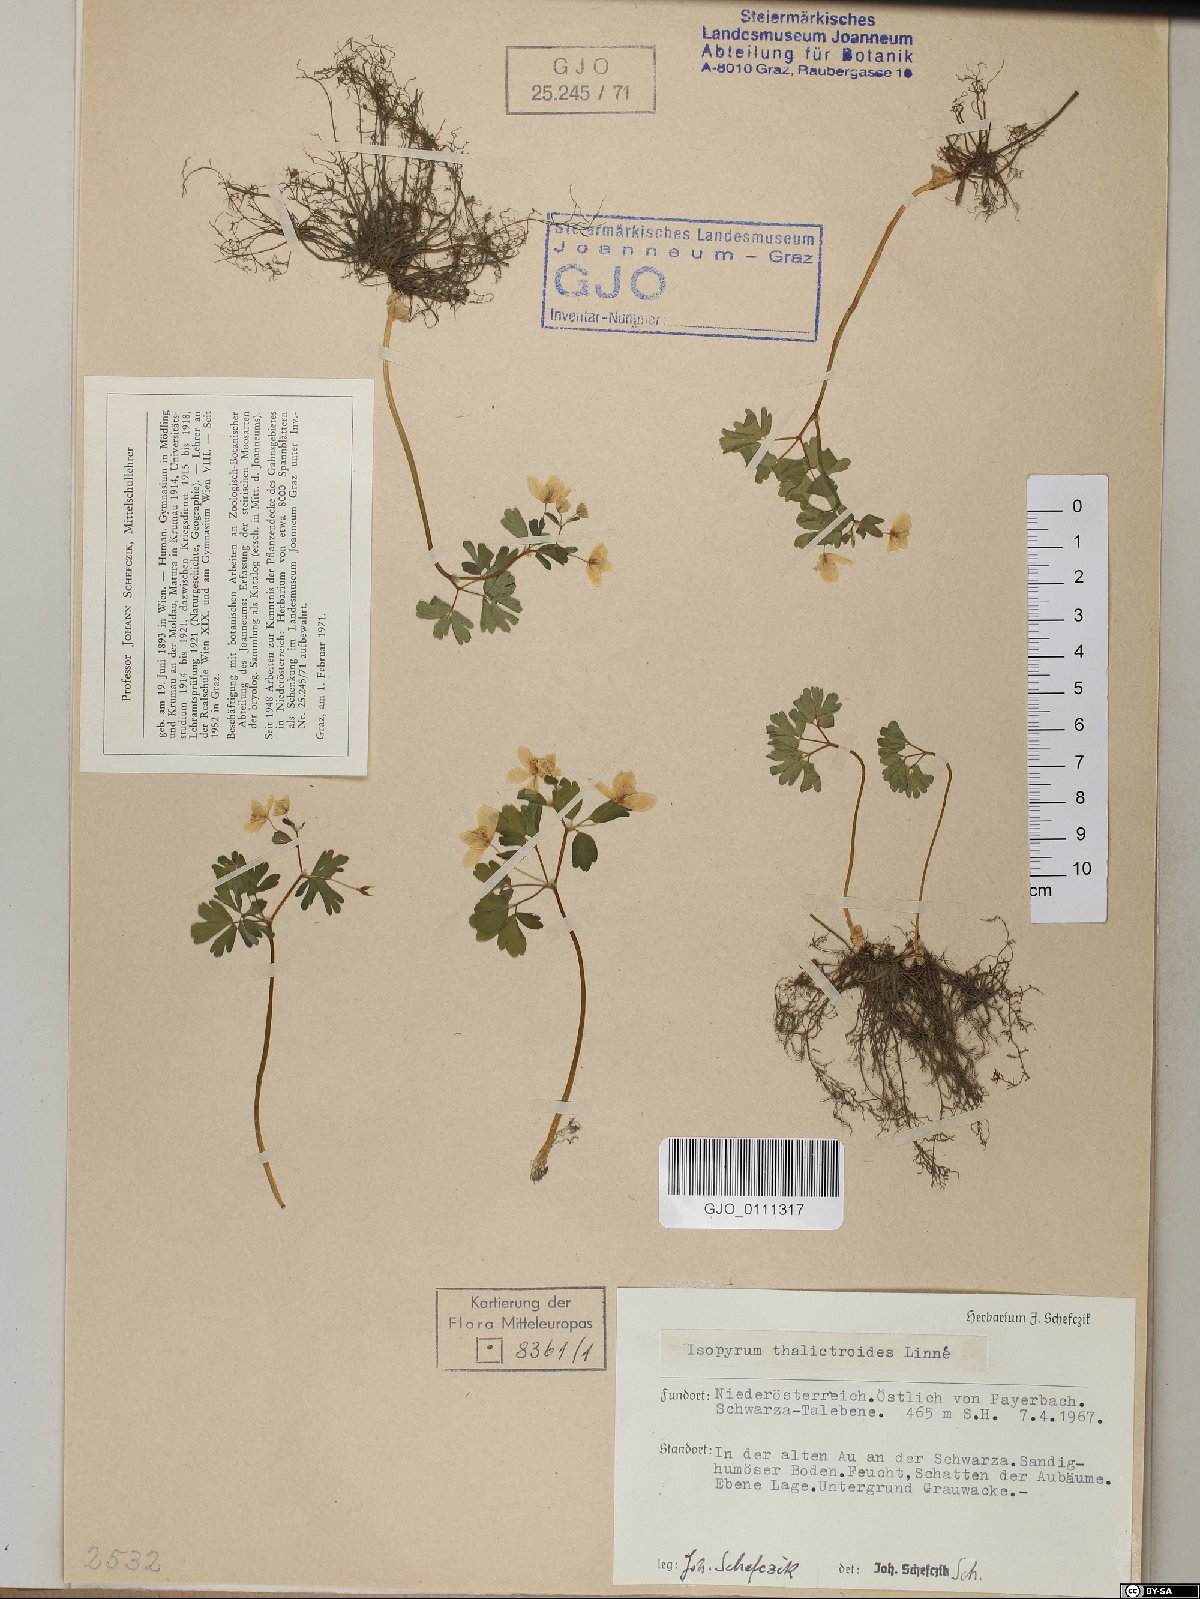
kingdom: Plantae
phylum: Tracheophyta
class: Magnoliopsida
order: Ranunculales
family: Ranunculaceae
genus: Isopyrum
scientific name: Isopyrum thalictroides
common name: Isopyrum
